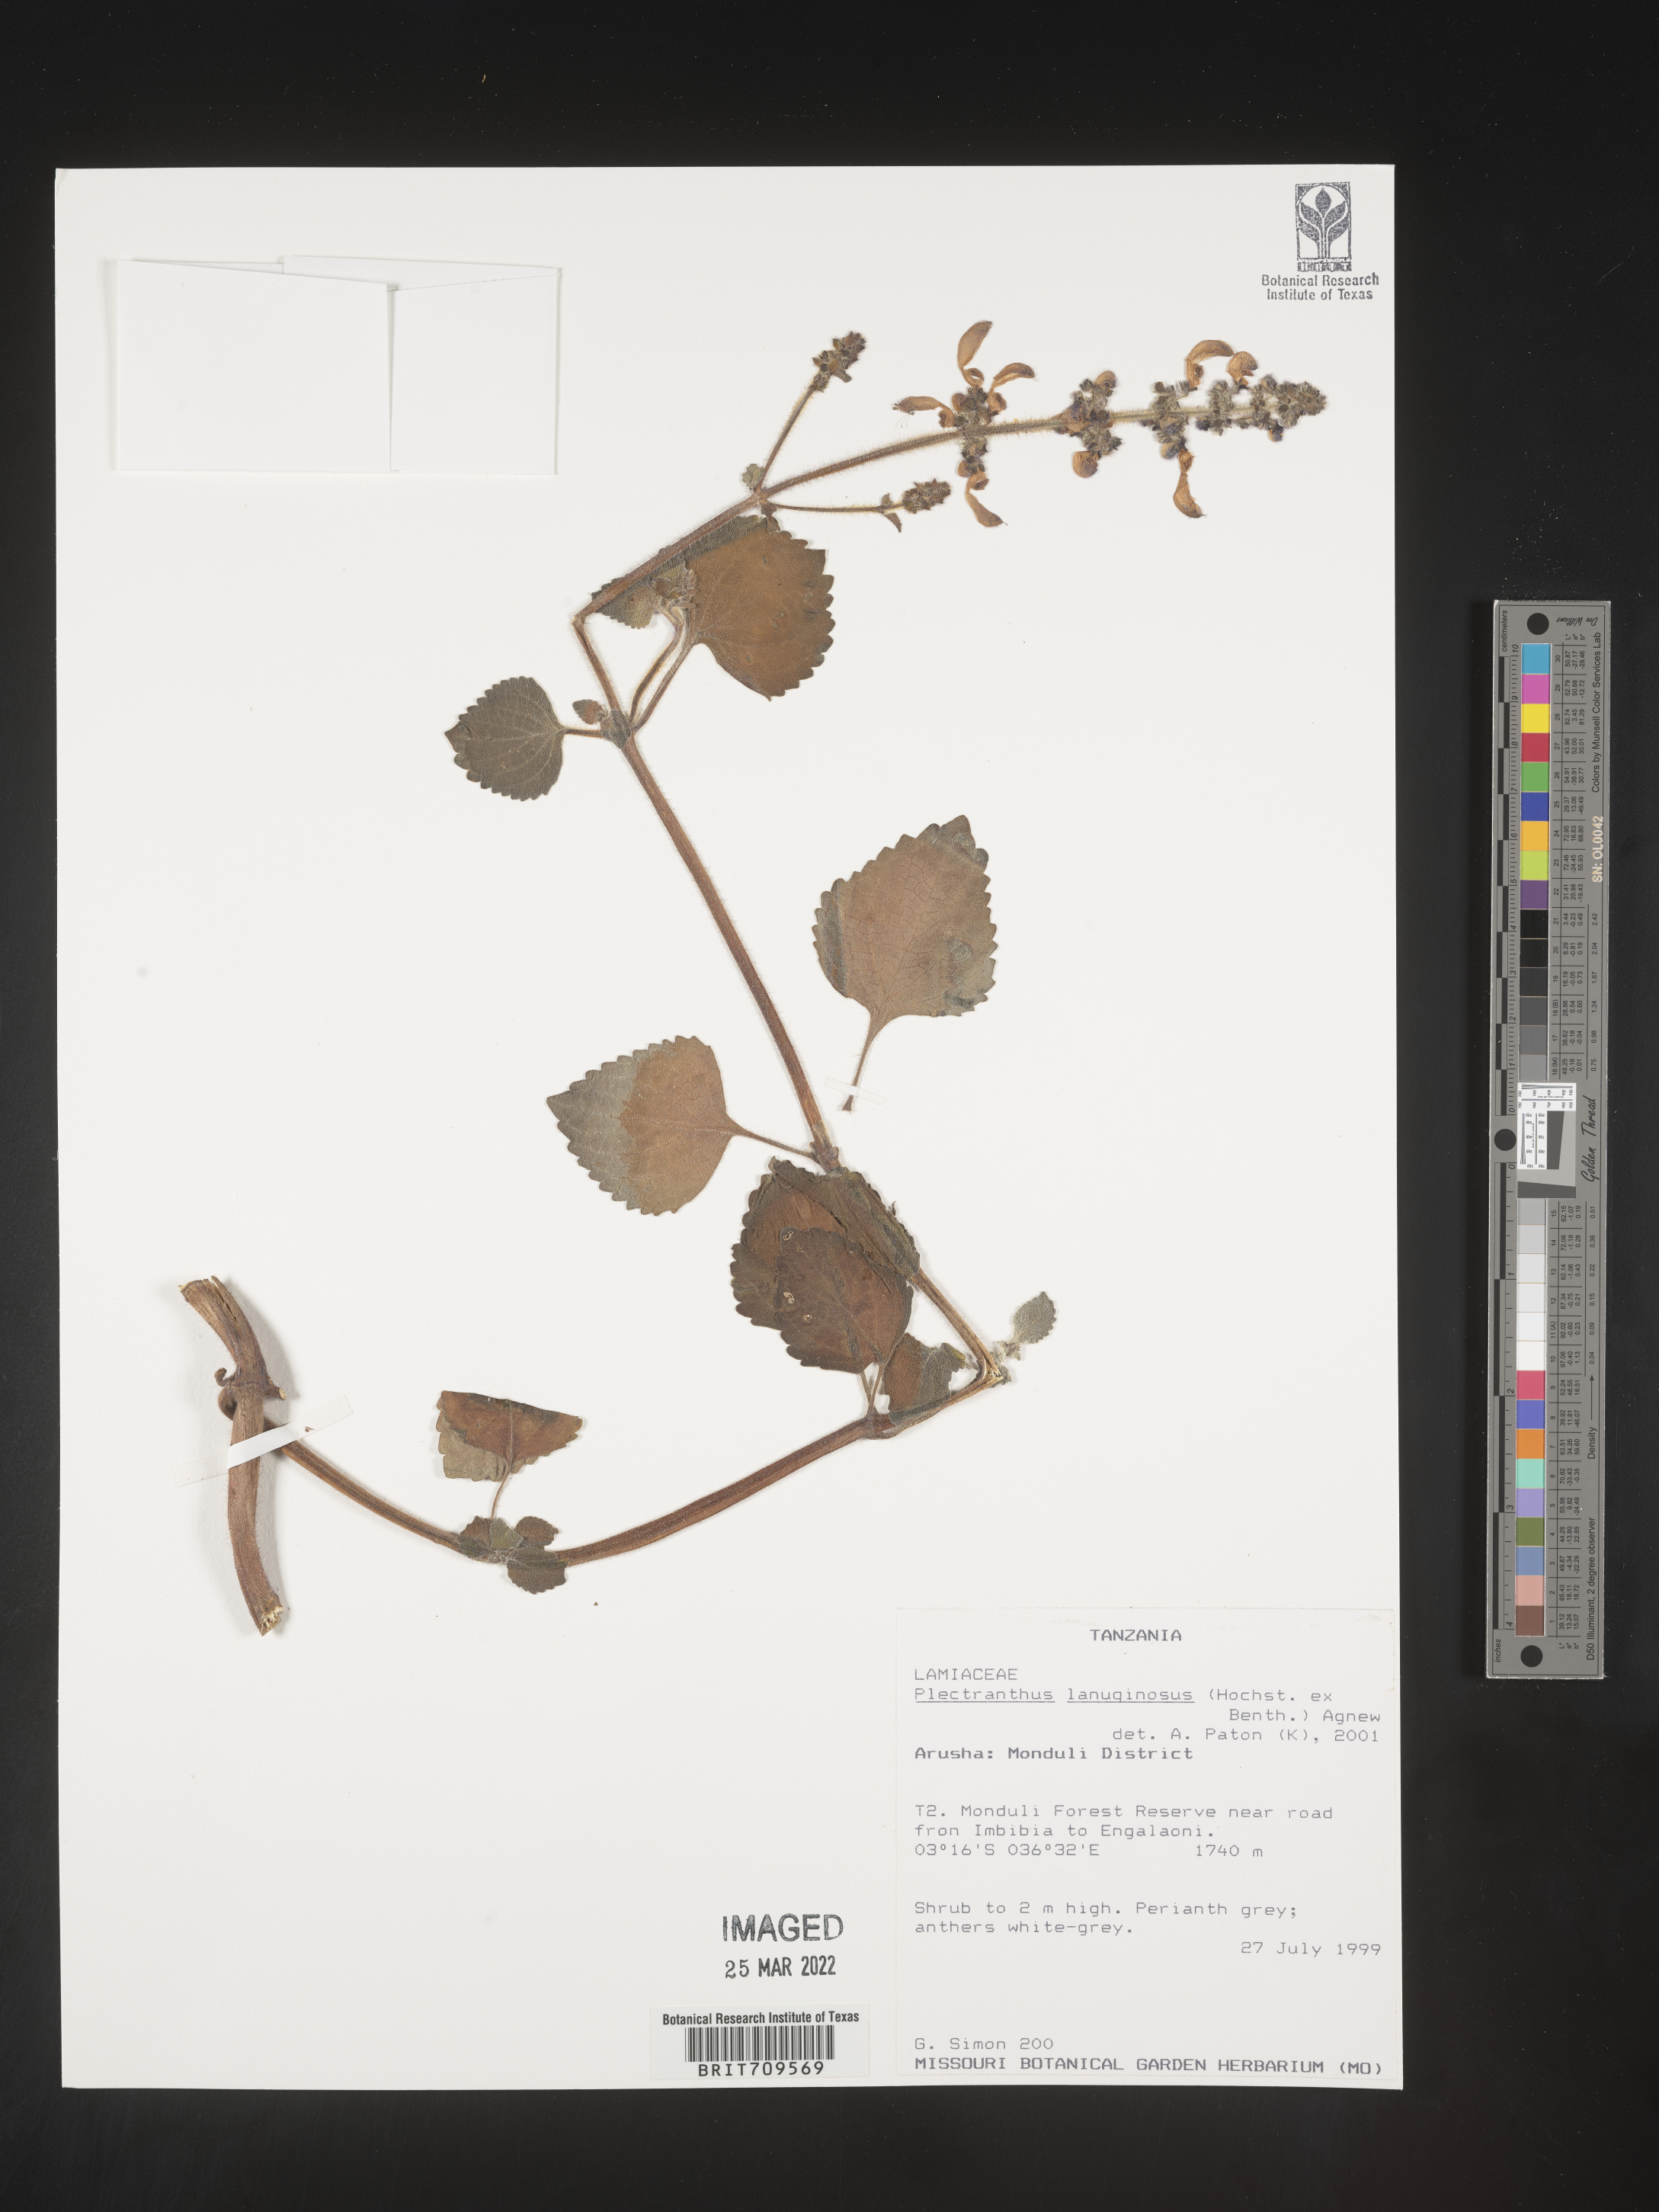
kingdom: Plantae
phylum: Tracheophyta
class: Magnoliopsida
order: Lamiales
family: Lamiaceae
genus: Plectranthus
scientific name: Plectranthus
